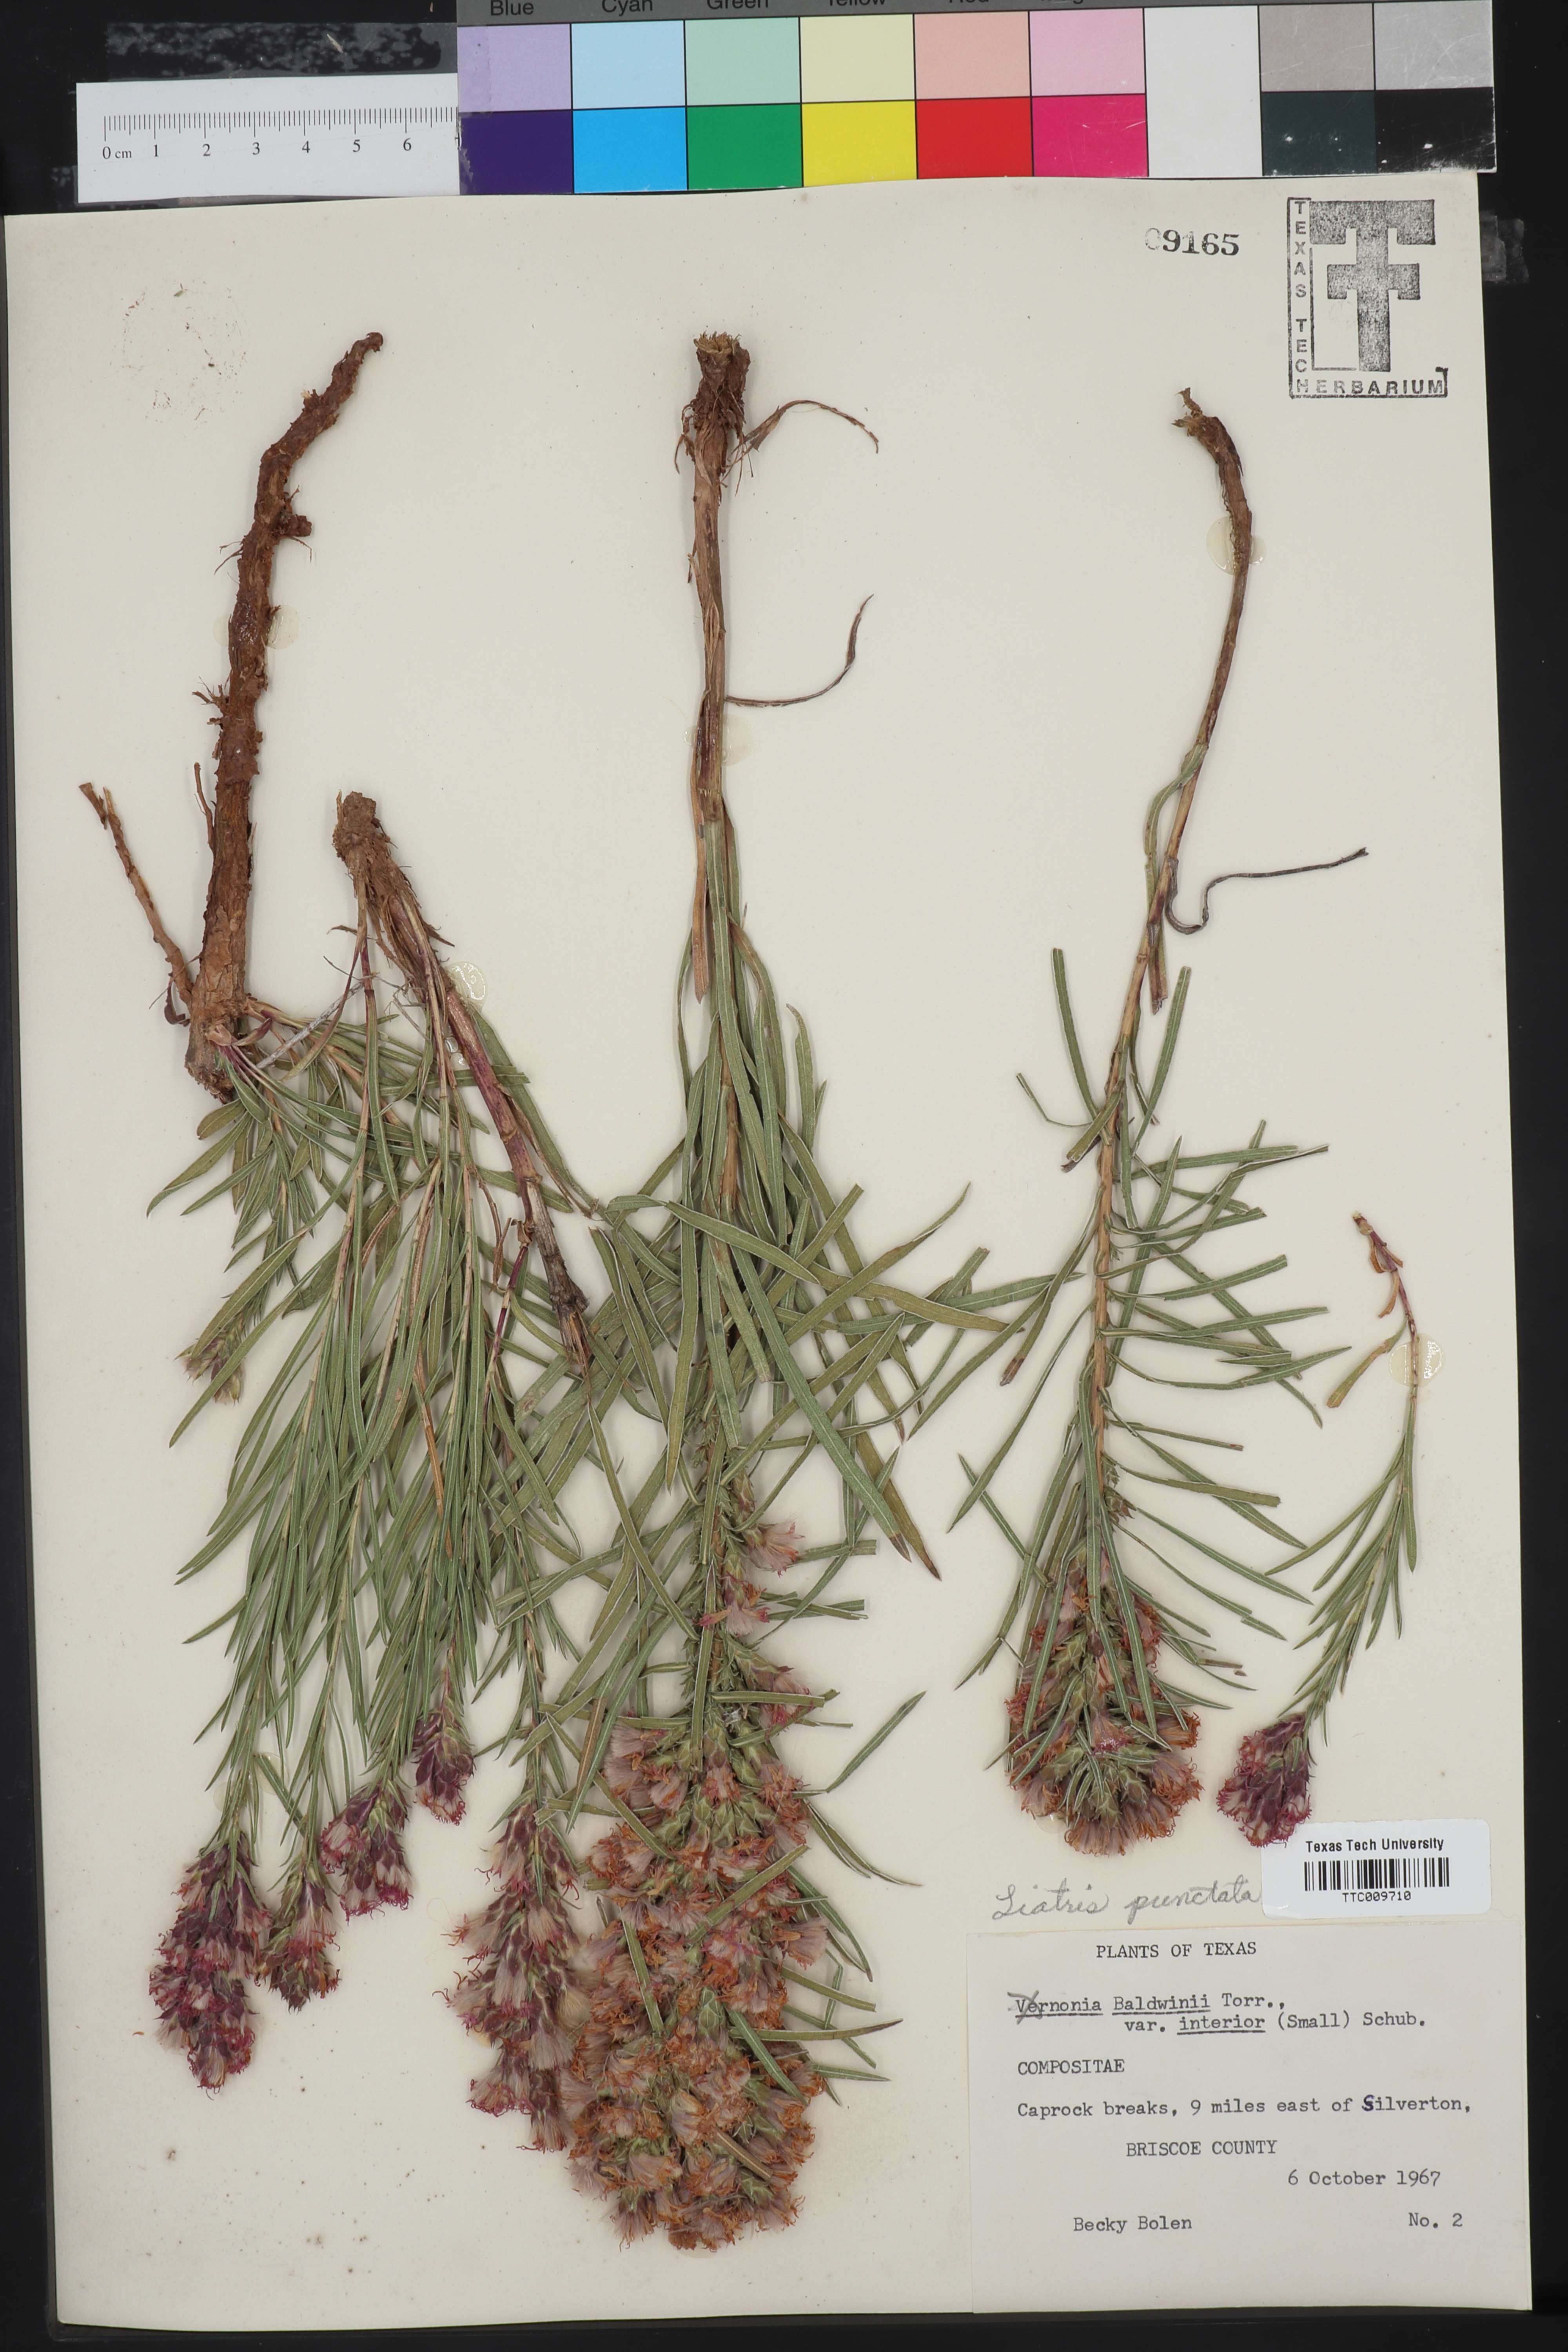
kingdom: Plantae
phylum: Tracheophyta
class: Magnoliopsida
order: Asterales
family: Asteraceae
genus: Liatris
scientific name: Liatris punctata
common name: Dotted gayfeather
